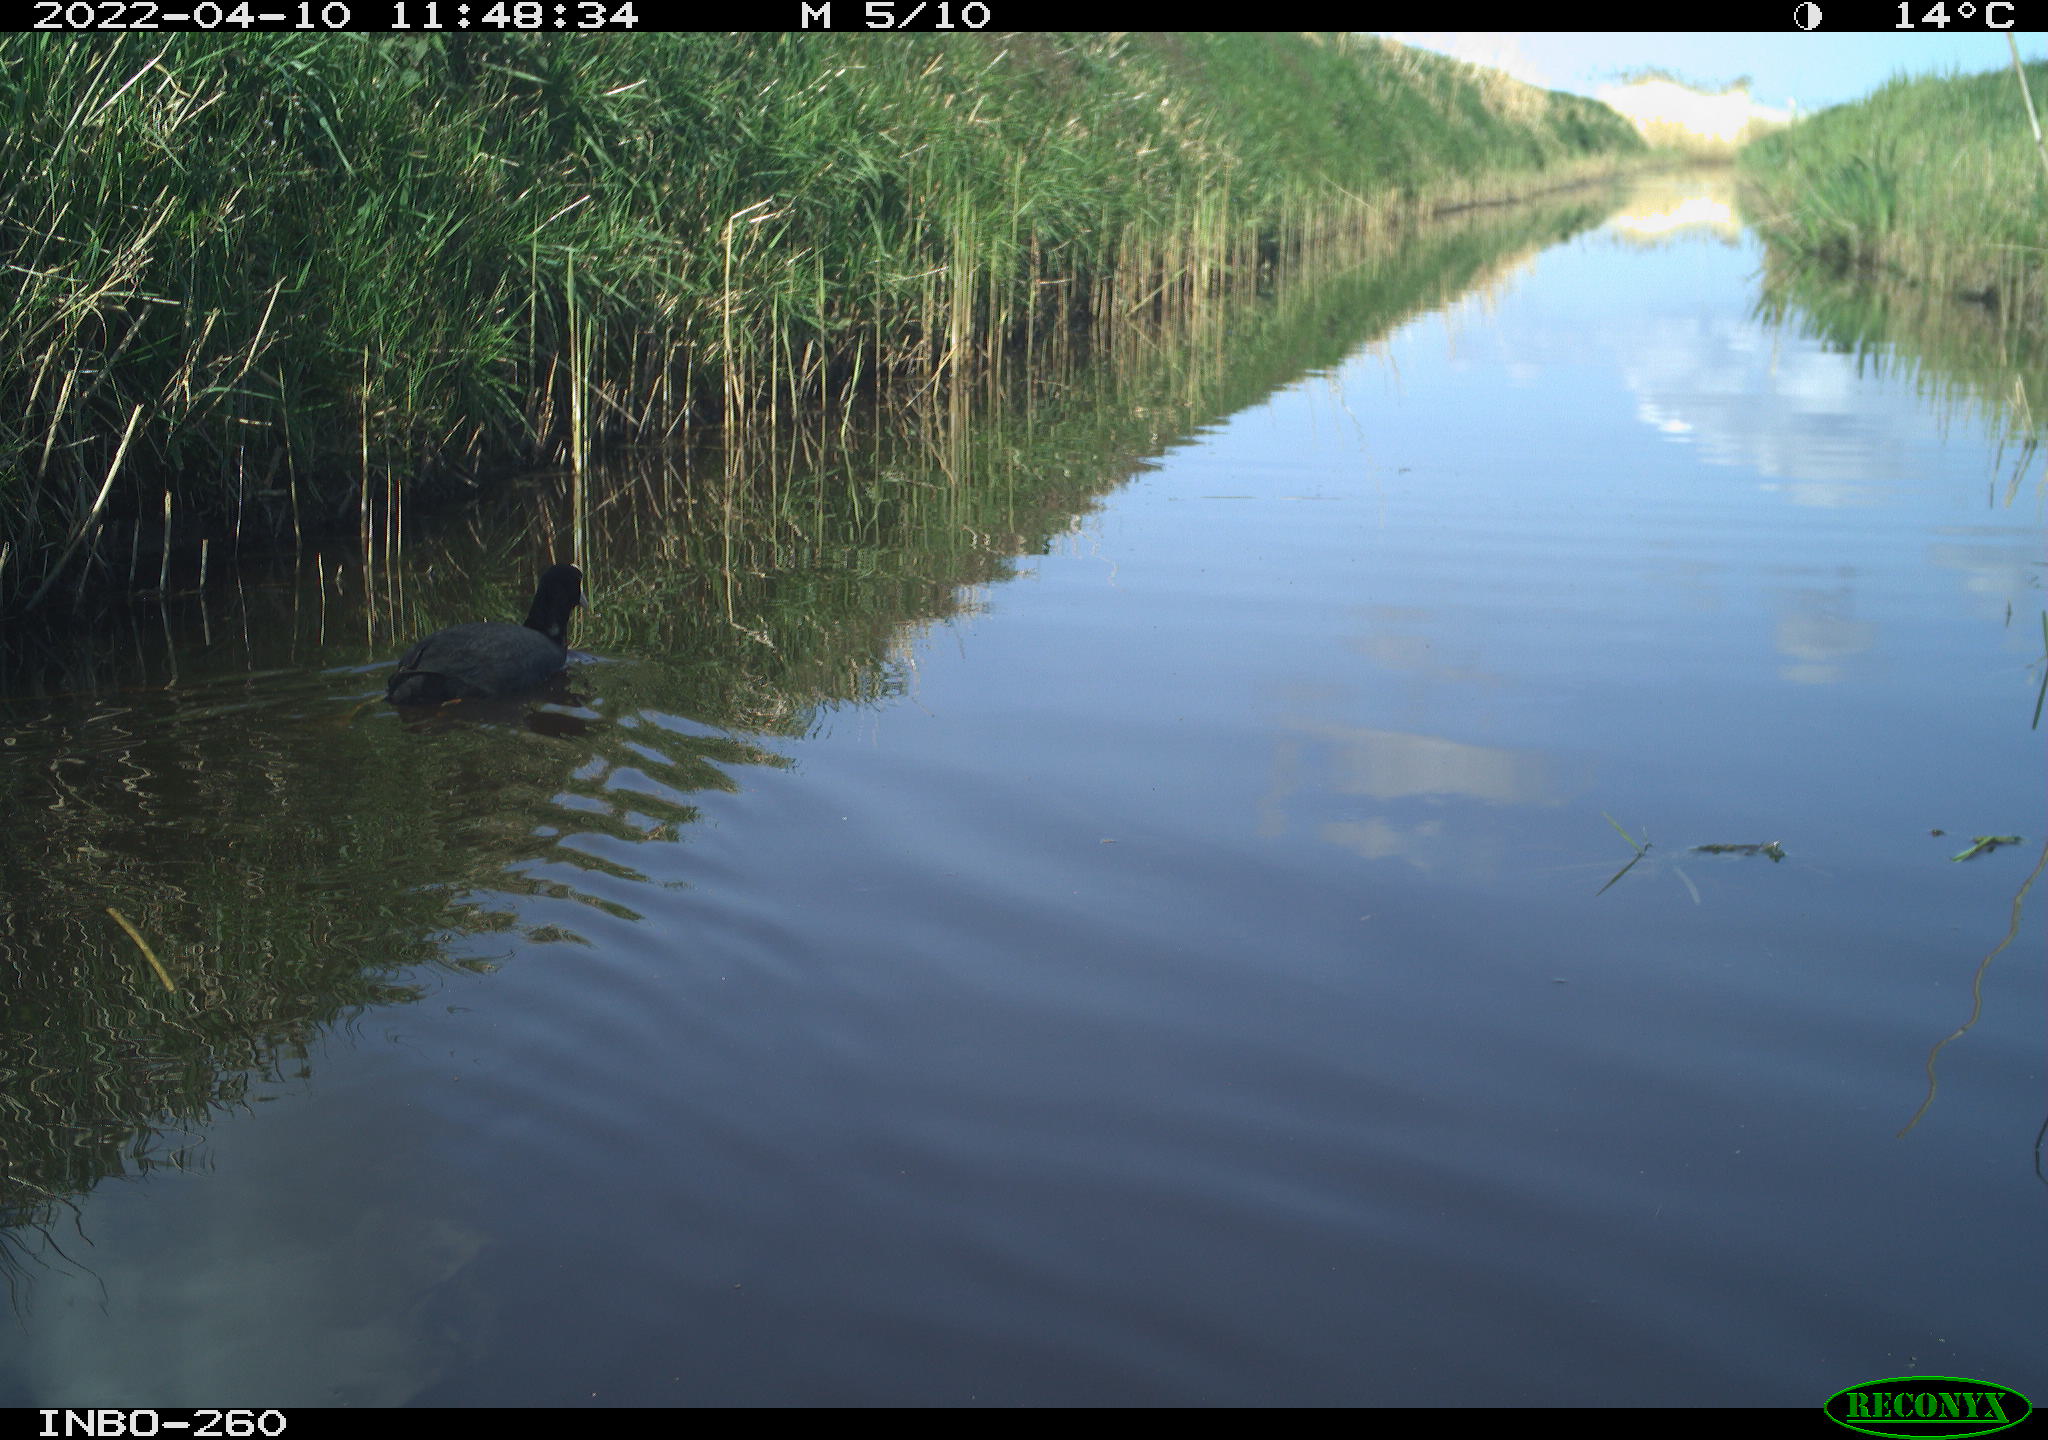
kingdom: Animalia
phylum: Chordata
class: Aves
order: Gruiformes
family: Rallidae
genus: Fulica
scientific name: Fulica atra
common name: Eurasian coot
